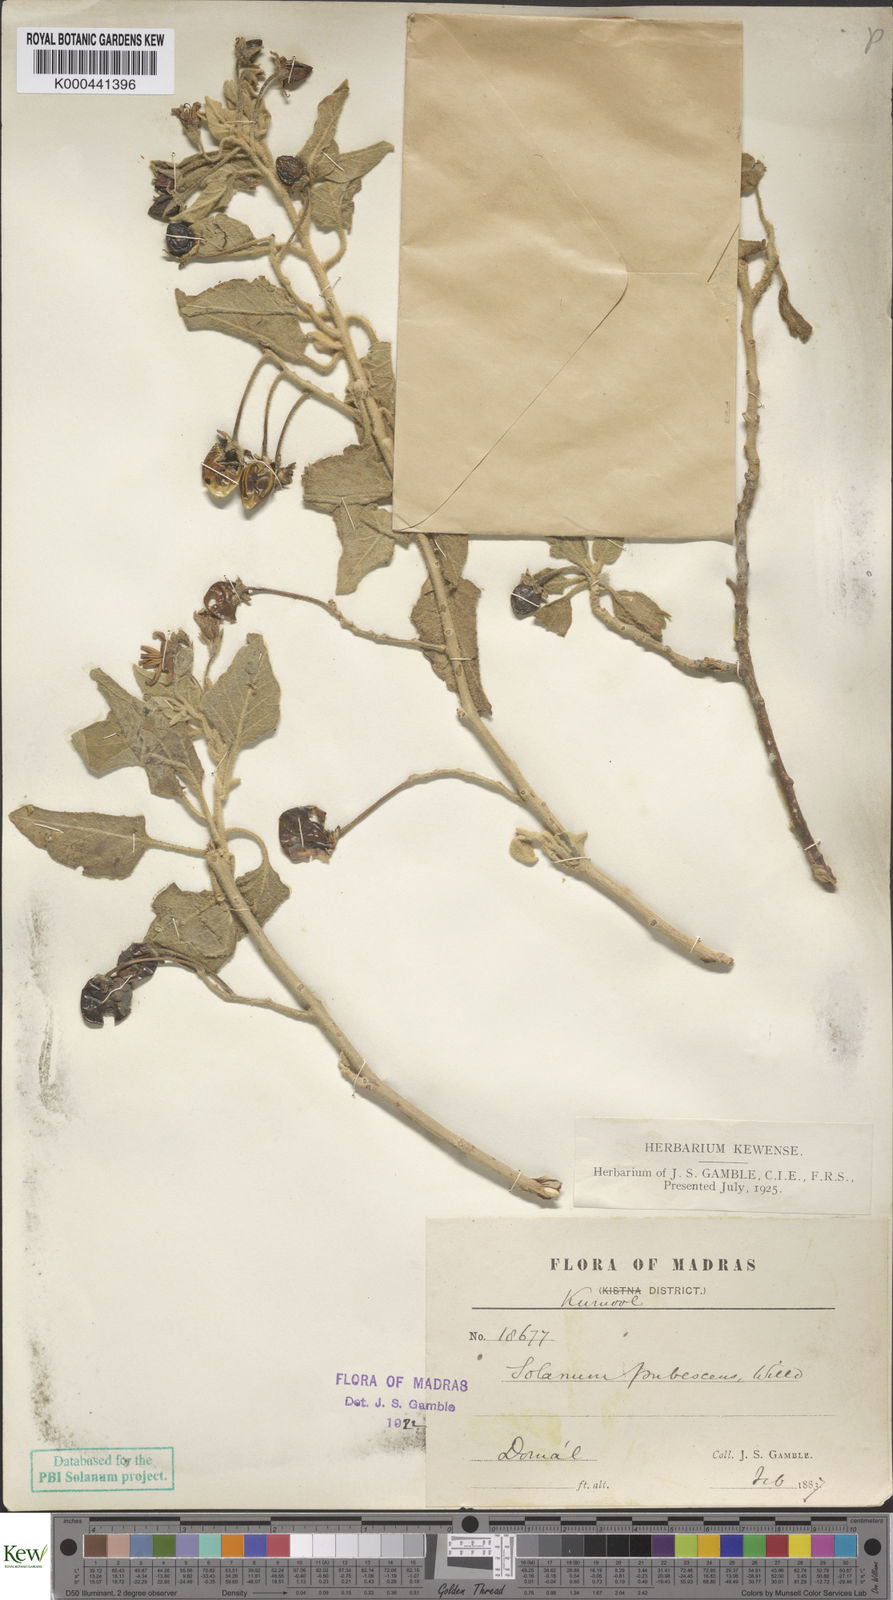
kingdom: Plantae
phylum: Tracheophyta
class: Magnoliopsida
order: Solanales
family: Solanaceae
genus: Solanum
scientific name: Solanum pubescens
